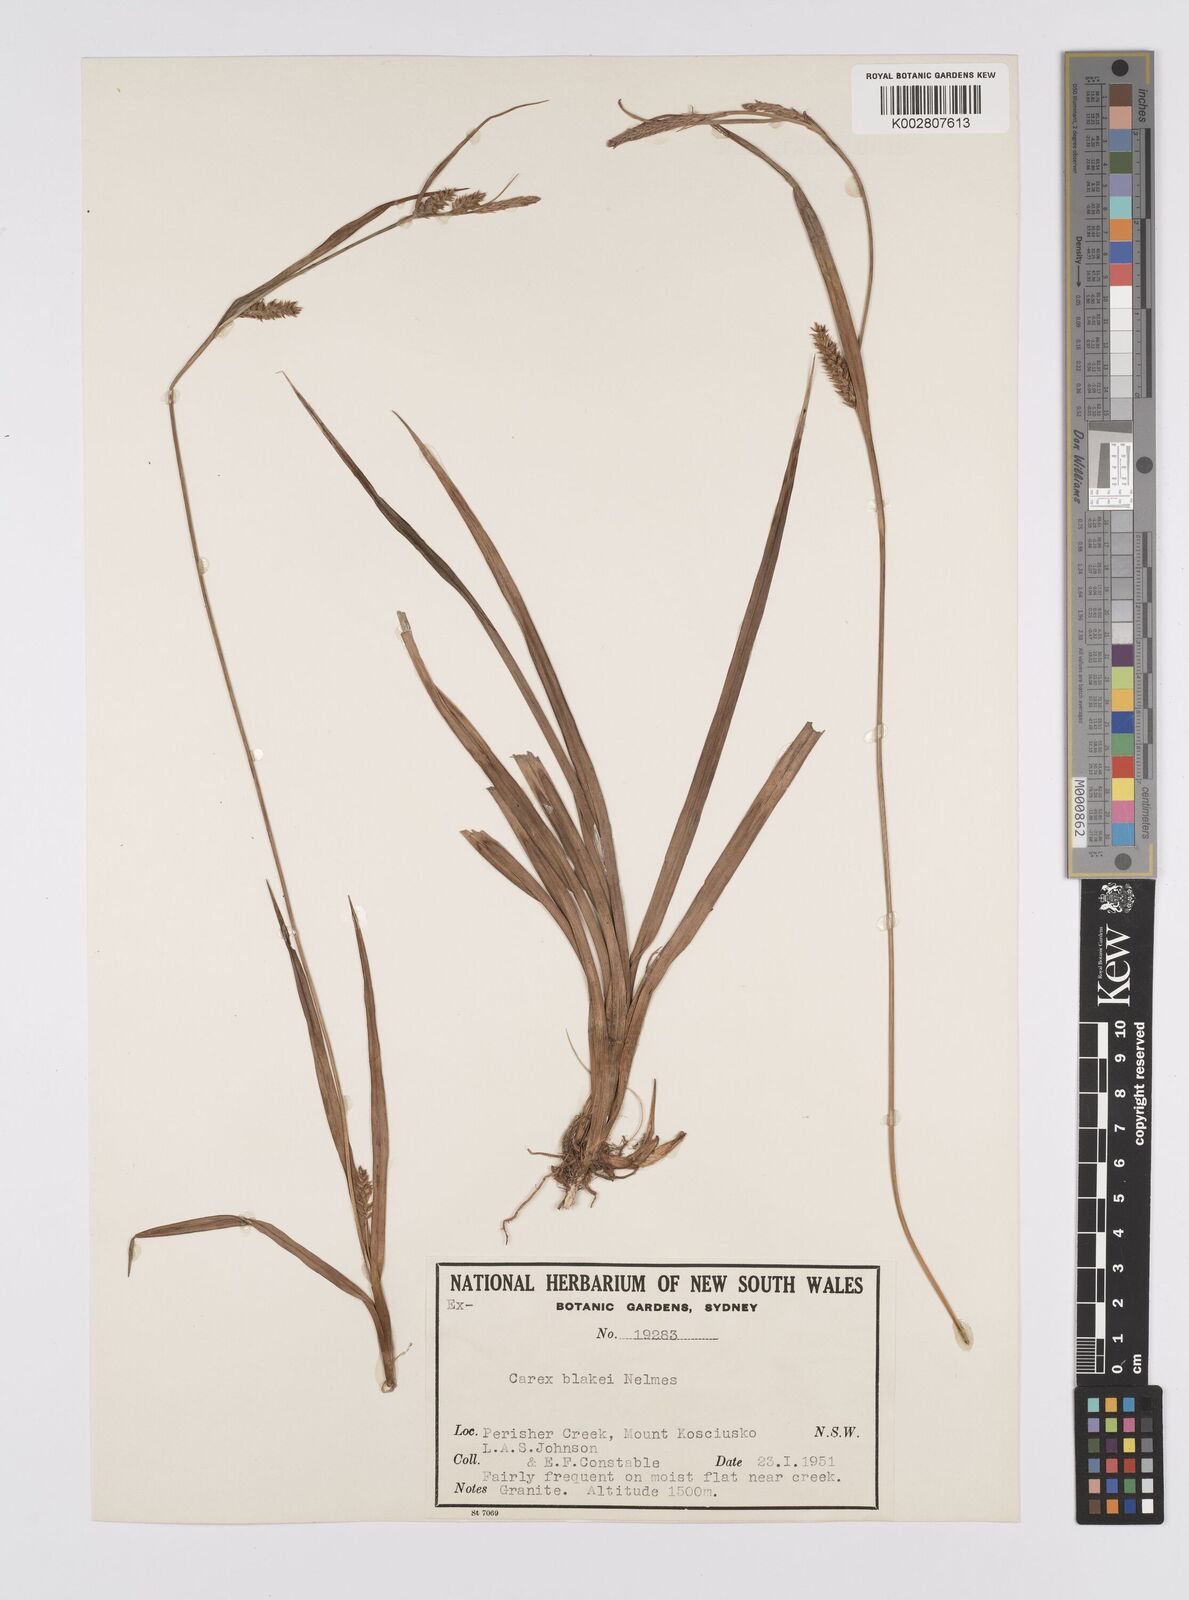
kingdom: Plantae
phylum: Tracheophyta
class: Liliopsida
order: Poales
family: Cyperaceae
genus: Carex
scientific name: Carex blakei
